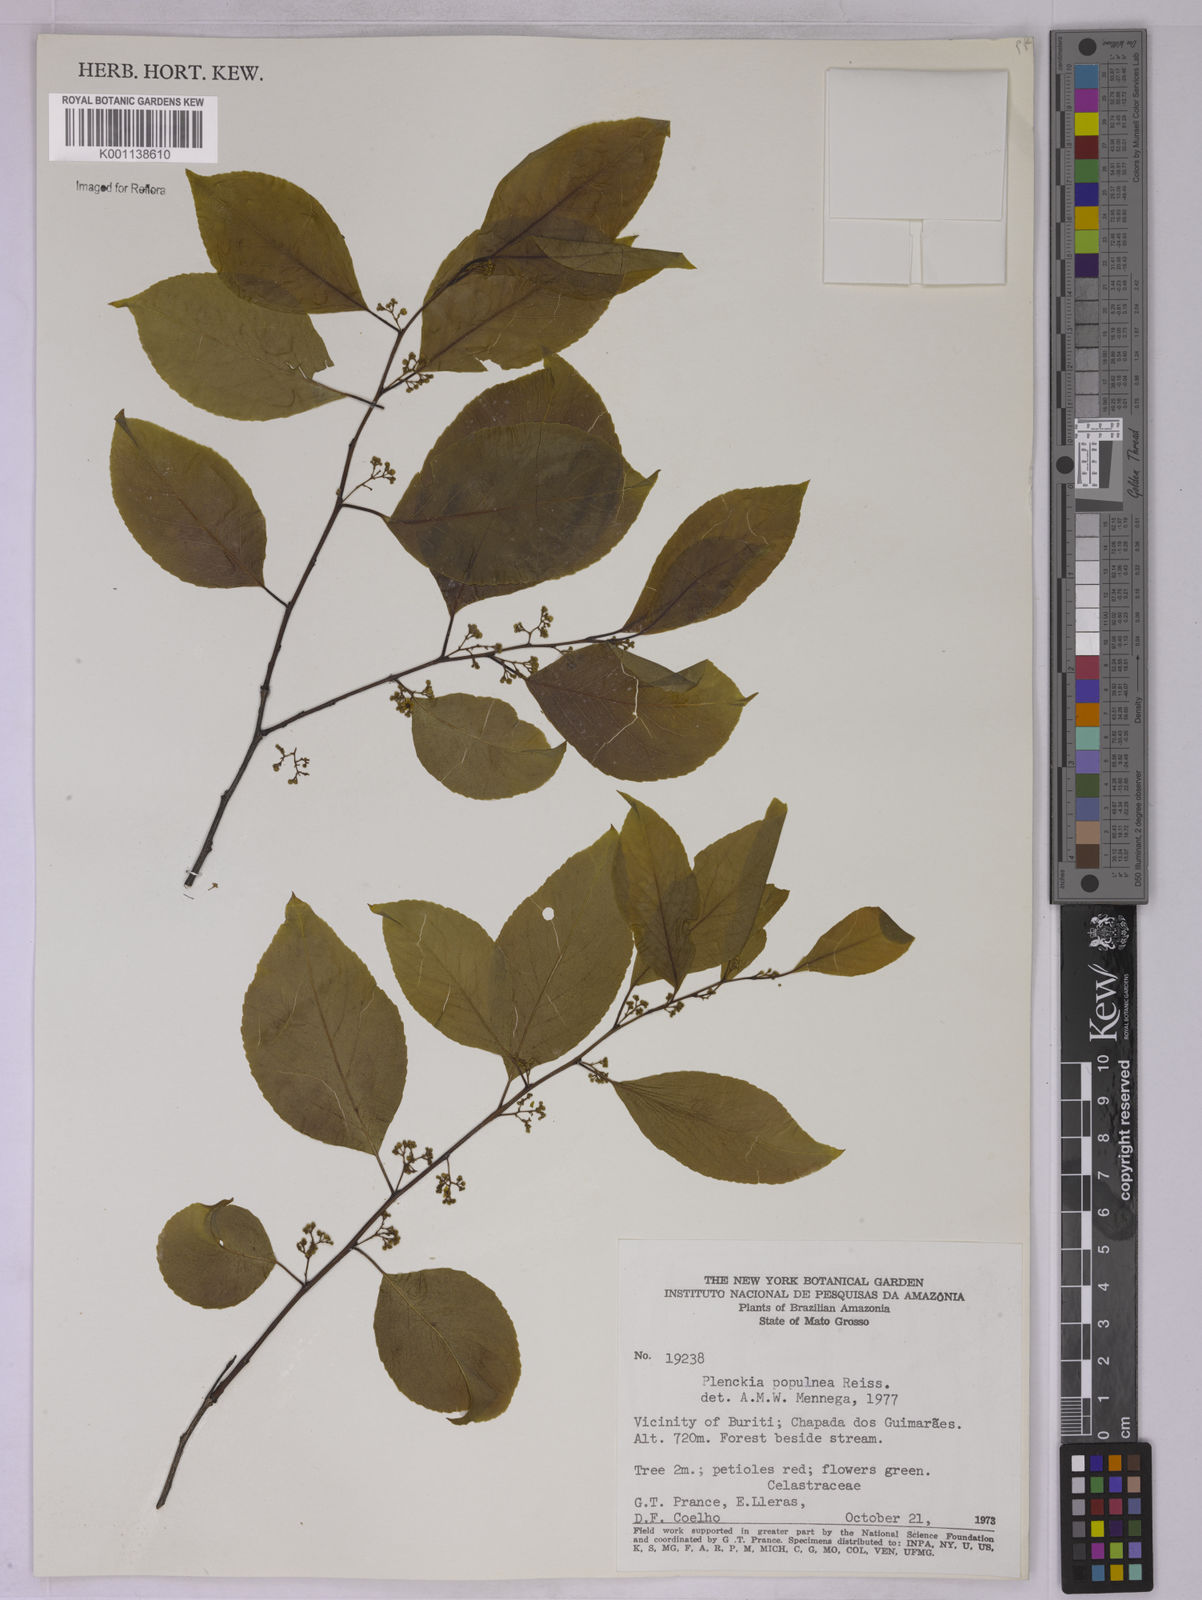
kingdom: Plantae
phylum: Tracheophyta
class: Magnoliopsida
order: Celastrales
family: Celastraceae
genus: Plenckia
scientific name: Plenckia populnea
